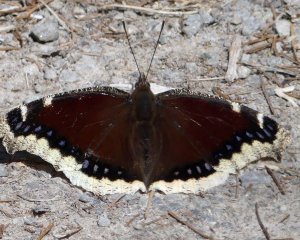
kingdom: Animalia
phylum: Arthropoda
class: Insecta
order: Lepidoptera
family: Nymphalidae
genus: Nymphalis
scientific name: Nymphalis antiopa
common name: Mourning Cloak
